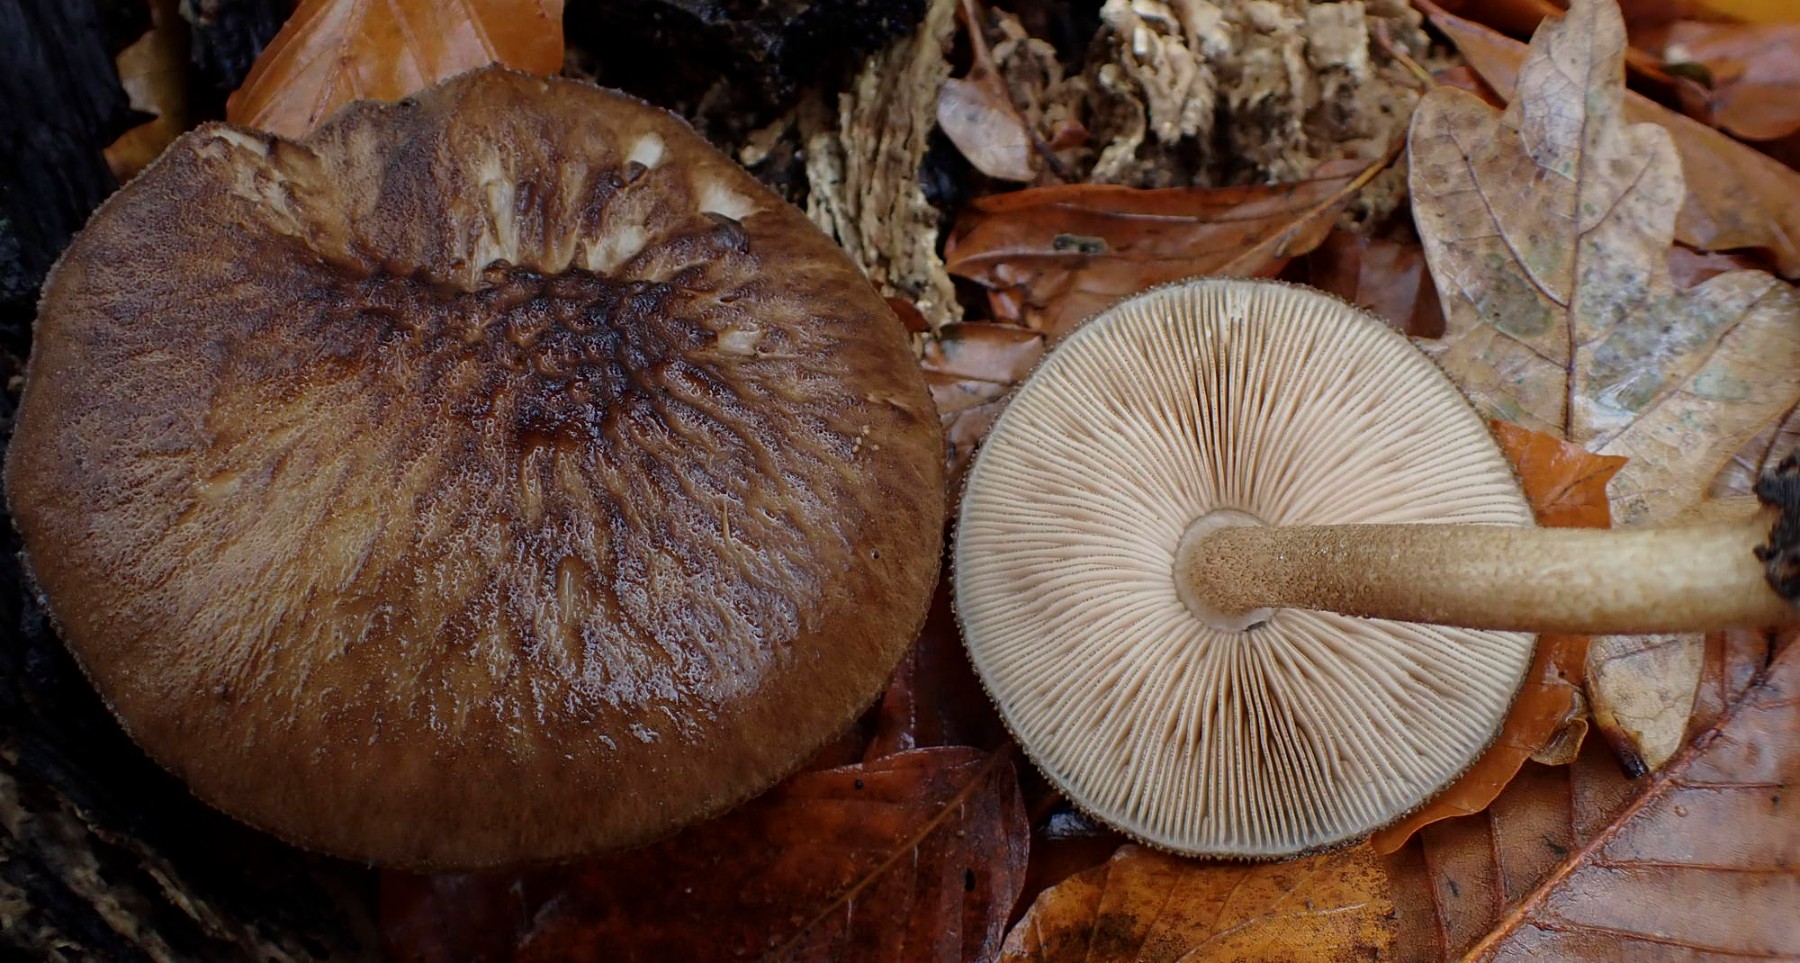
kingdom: Fungi
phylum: Basidiomycota
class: Agaricomycetes
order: Agaricales
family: Pluteaceae
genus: Pluteus
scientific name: Pluteus umbrosus
